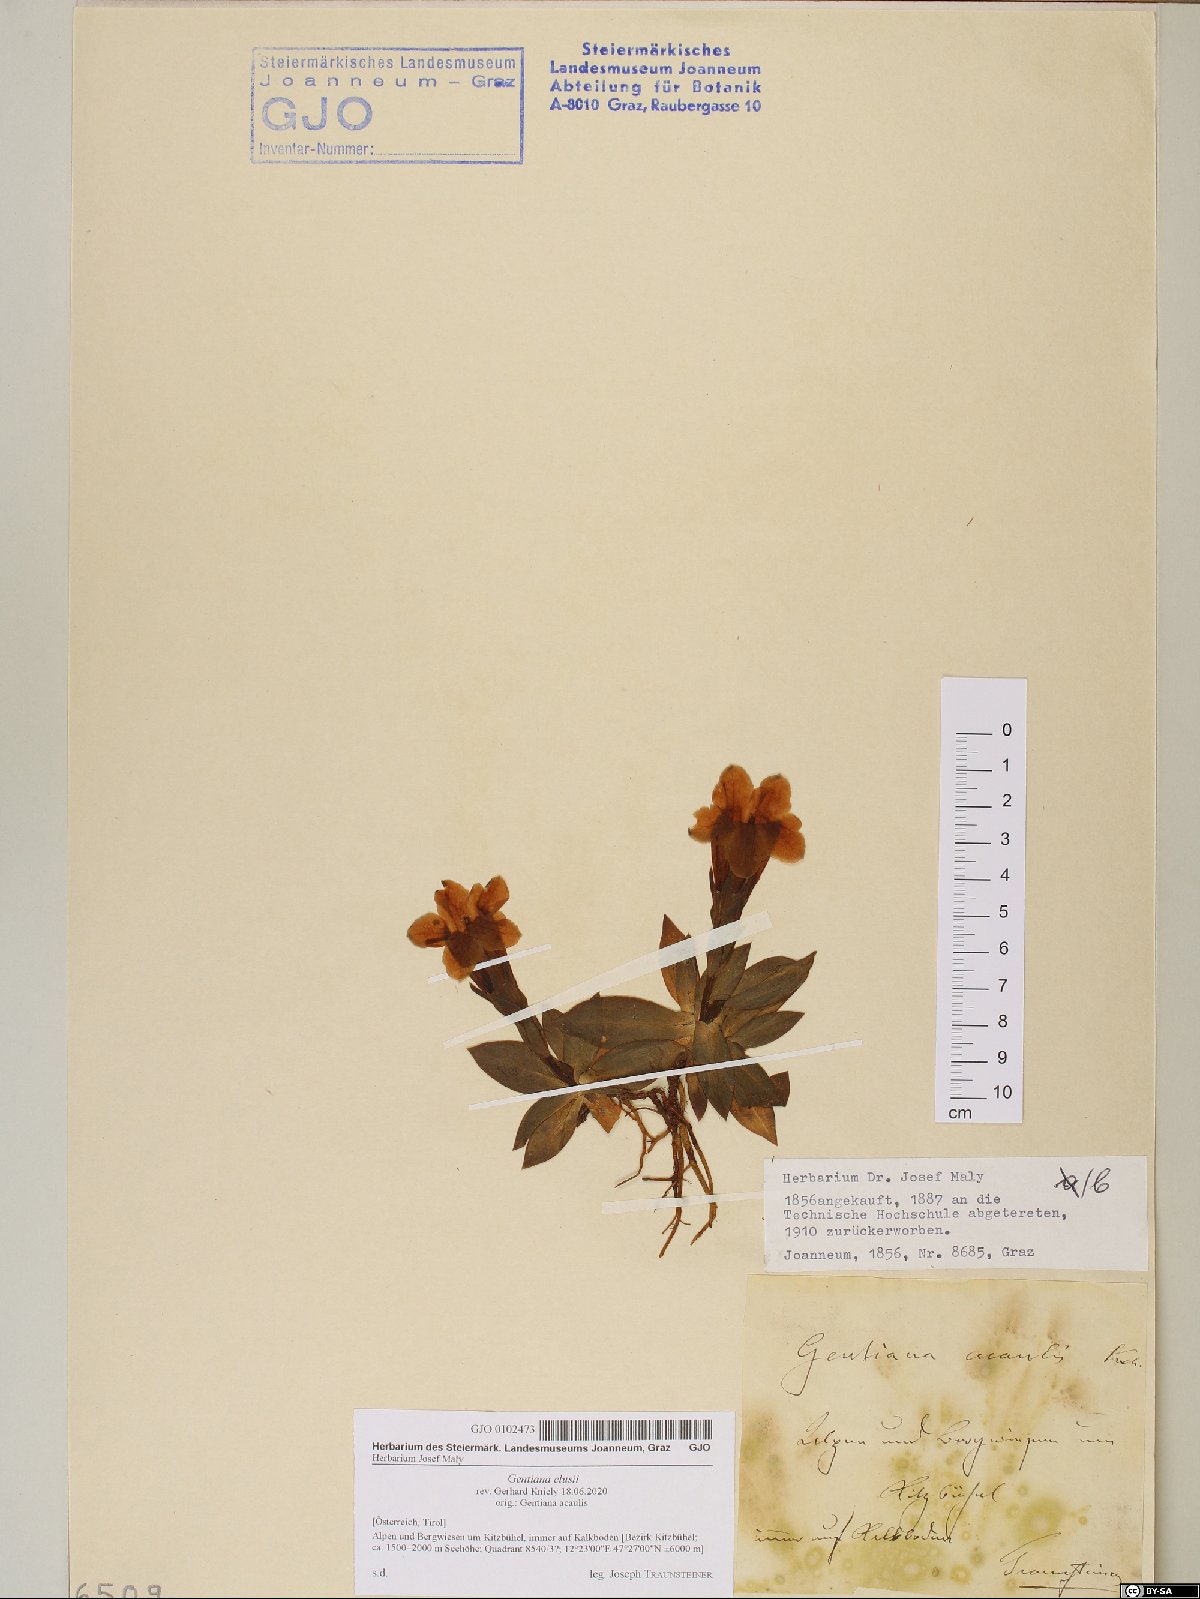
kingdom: Plantae
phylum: Tracheophyta
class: Magnoliopsida
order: Gentianales
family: Gentianaceae
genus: Gentiana
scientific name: Gentiana clusii
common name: Trumpet gentian
